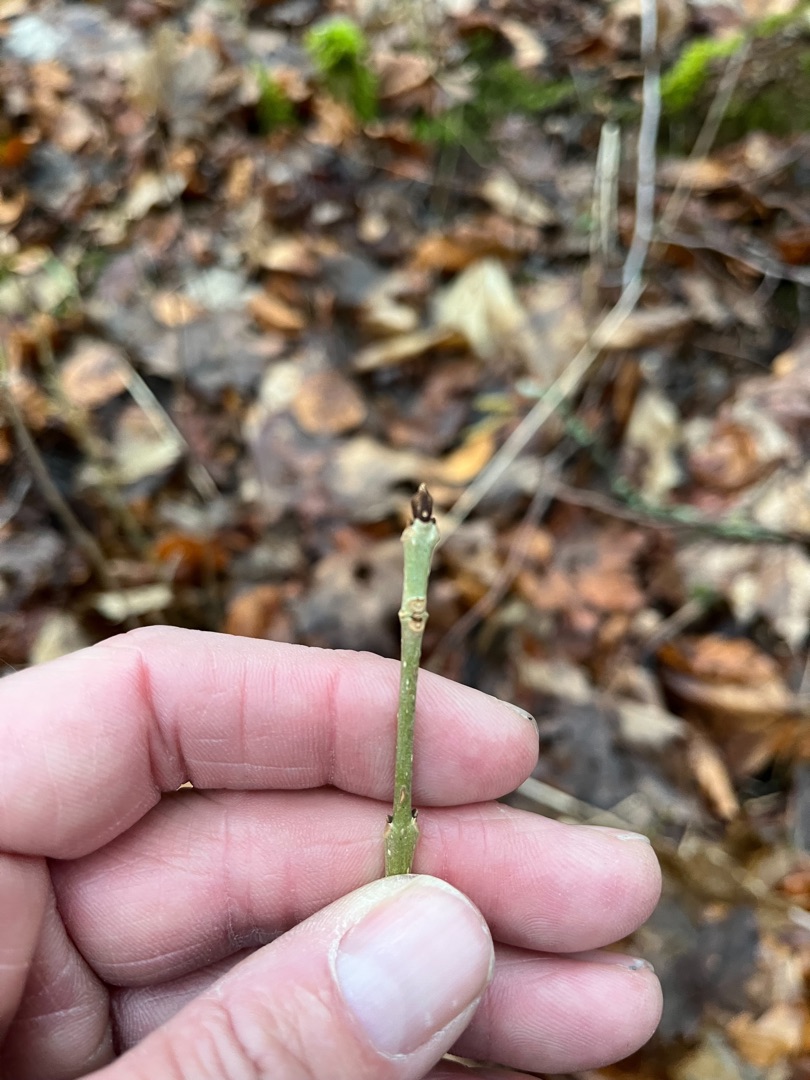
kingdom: Plantae
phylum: Tracheophyta
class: Magnoliopsida
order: Lamiales
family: Oleaceae
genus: Fraxinus
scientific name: Fraxinus excelsior
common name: Ask
